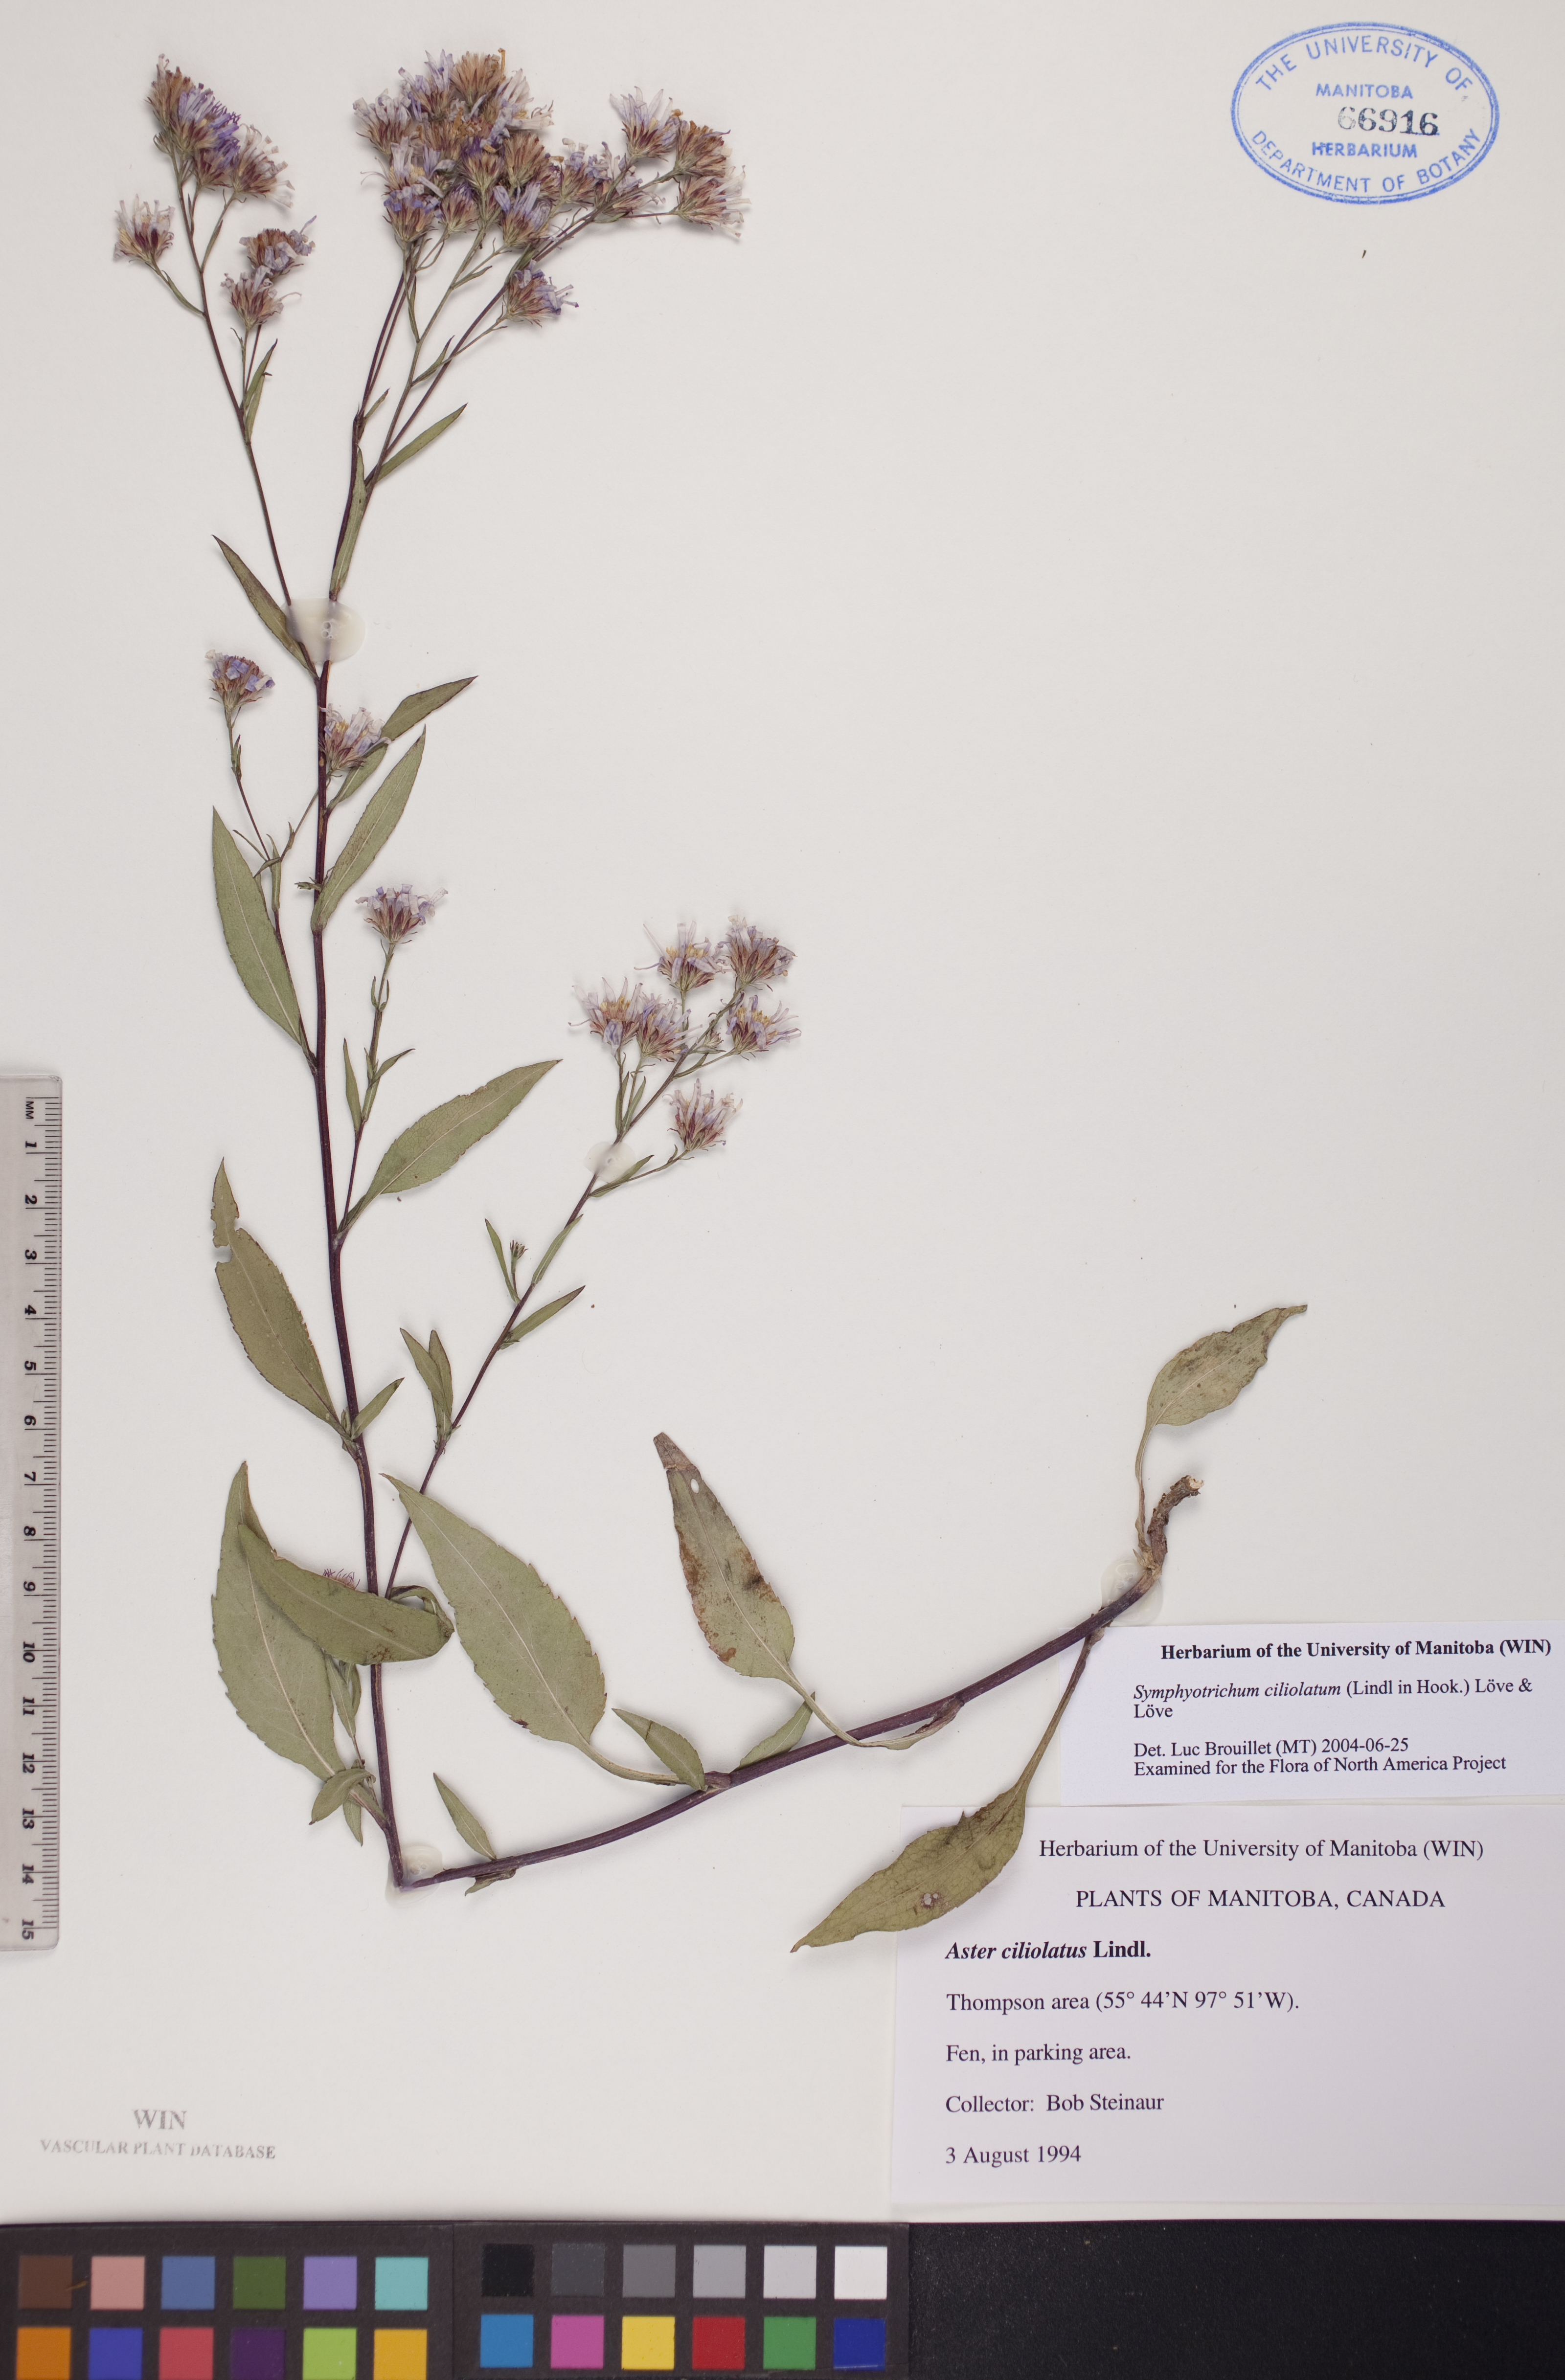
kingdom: Plantae
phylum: Tracheophyta
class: Magnoliopsida
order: Asterales
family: Asteraceae
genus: Symphyotrichum
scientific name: Symphyotrichum ciliolatum
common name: Fringed blue aster
